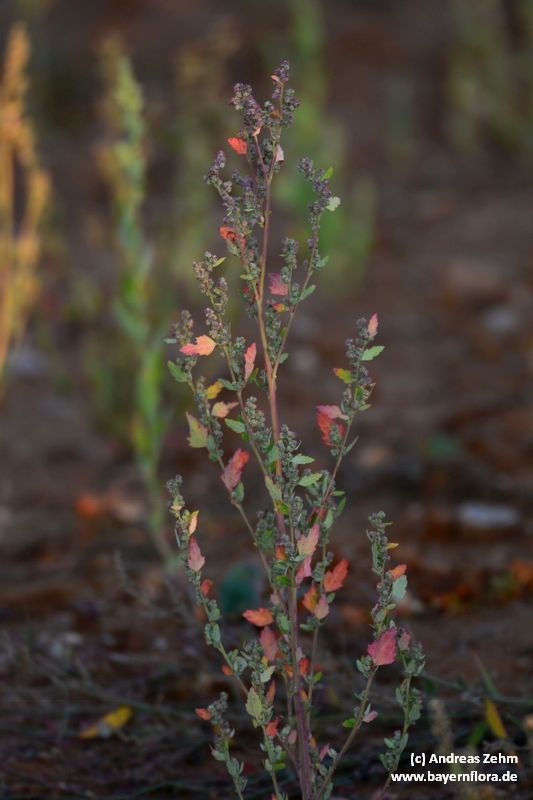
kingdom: Plantae
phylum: Tracheophyta
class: Magnoliopsida
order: Caryophyllales
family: Amaranthaceae
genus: Chenopodium
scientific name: Chenopodium album
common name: Fat-hen
